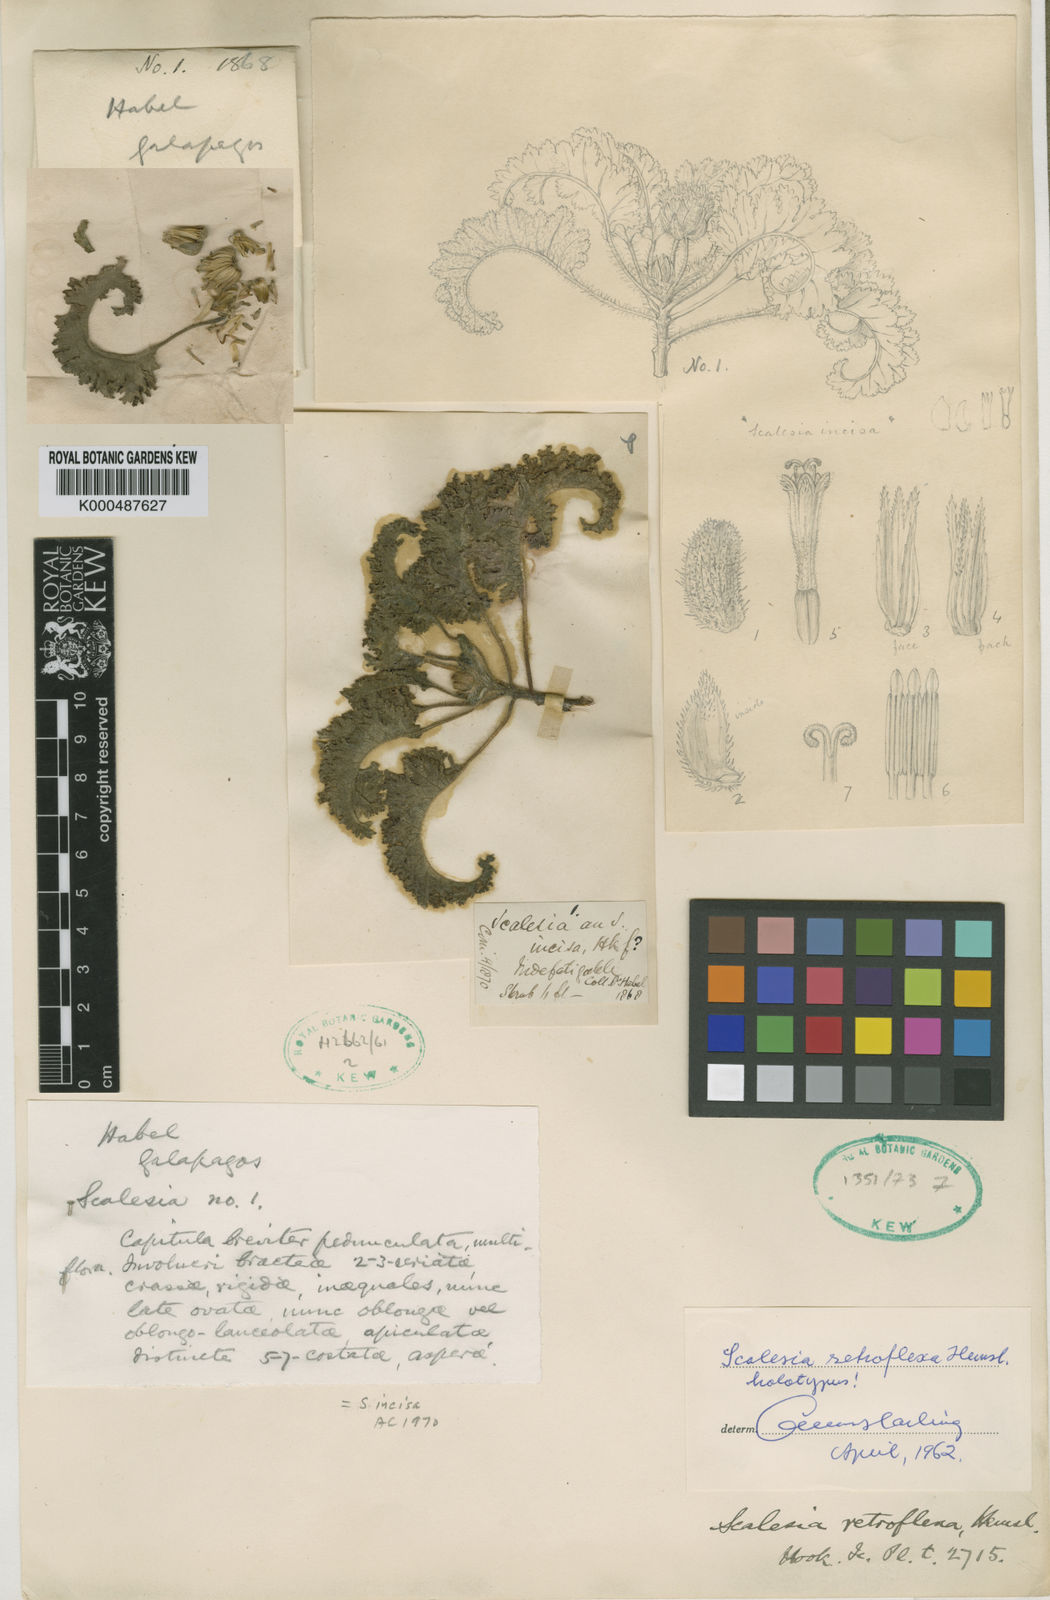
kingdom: Plantae
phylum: Tracheophyta
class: Magnoliopsida
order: Asterales
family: Asteraceae
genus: Scalesia
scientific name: Scalesia retroflexa
